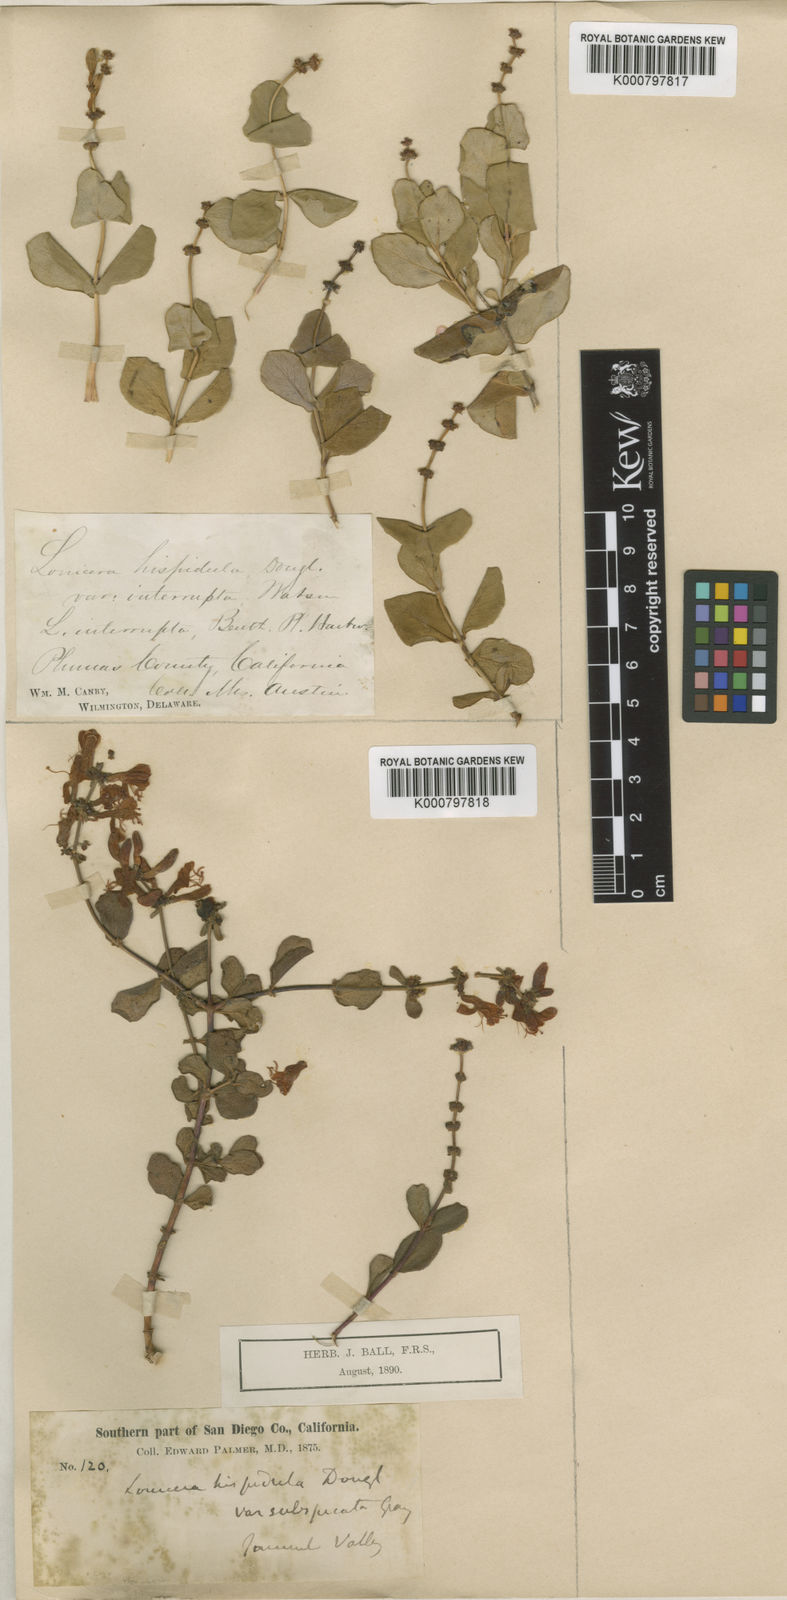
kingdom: Plantae
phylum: Tracheophyta
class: Magnoliopsida
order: Dipsacales
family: Caprifoliaceae
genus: Lonicera
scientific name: Lonicera hispidula
